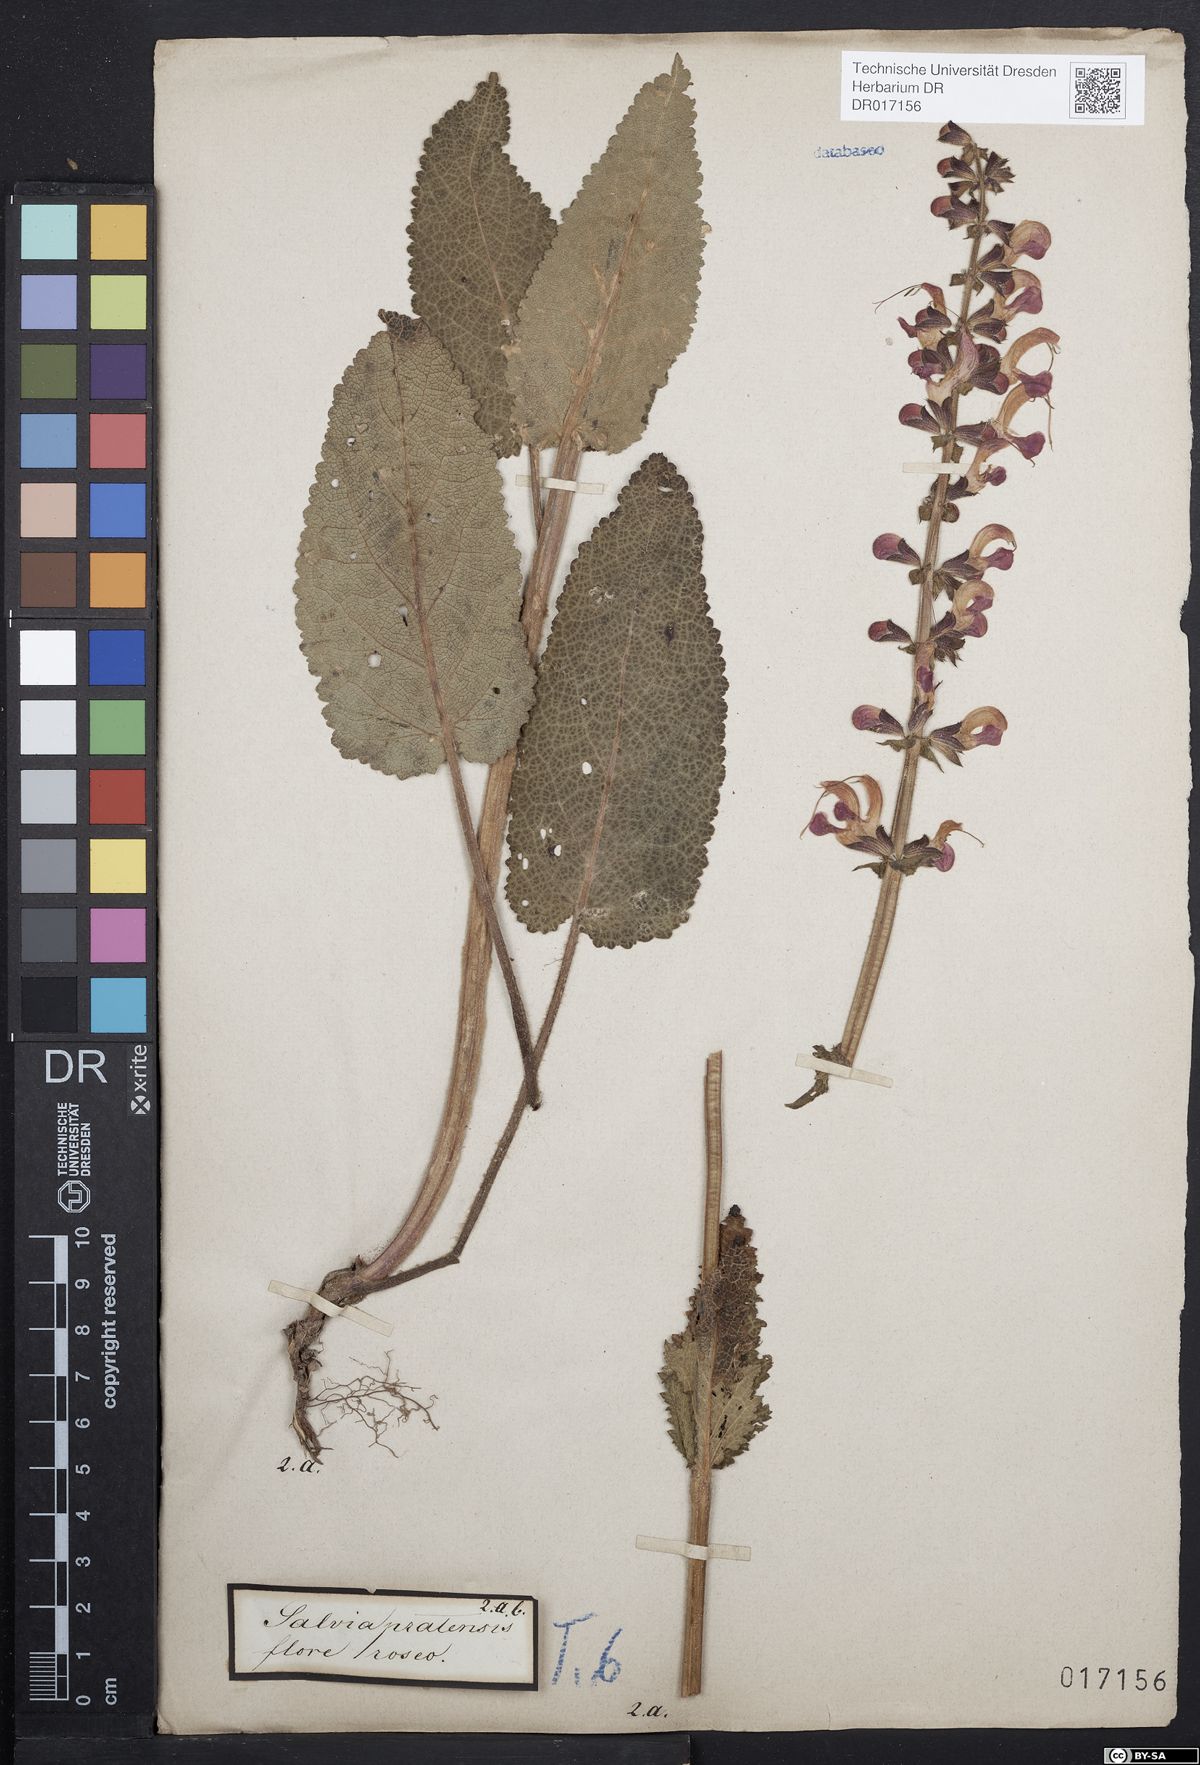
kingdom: Plantae
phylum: Tracheophyta
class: Magnoliopsida
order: Lamiales
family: Lamiaceae
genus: Salvia
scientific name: Salvia pratensis
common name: Meadow sage
